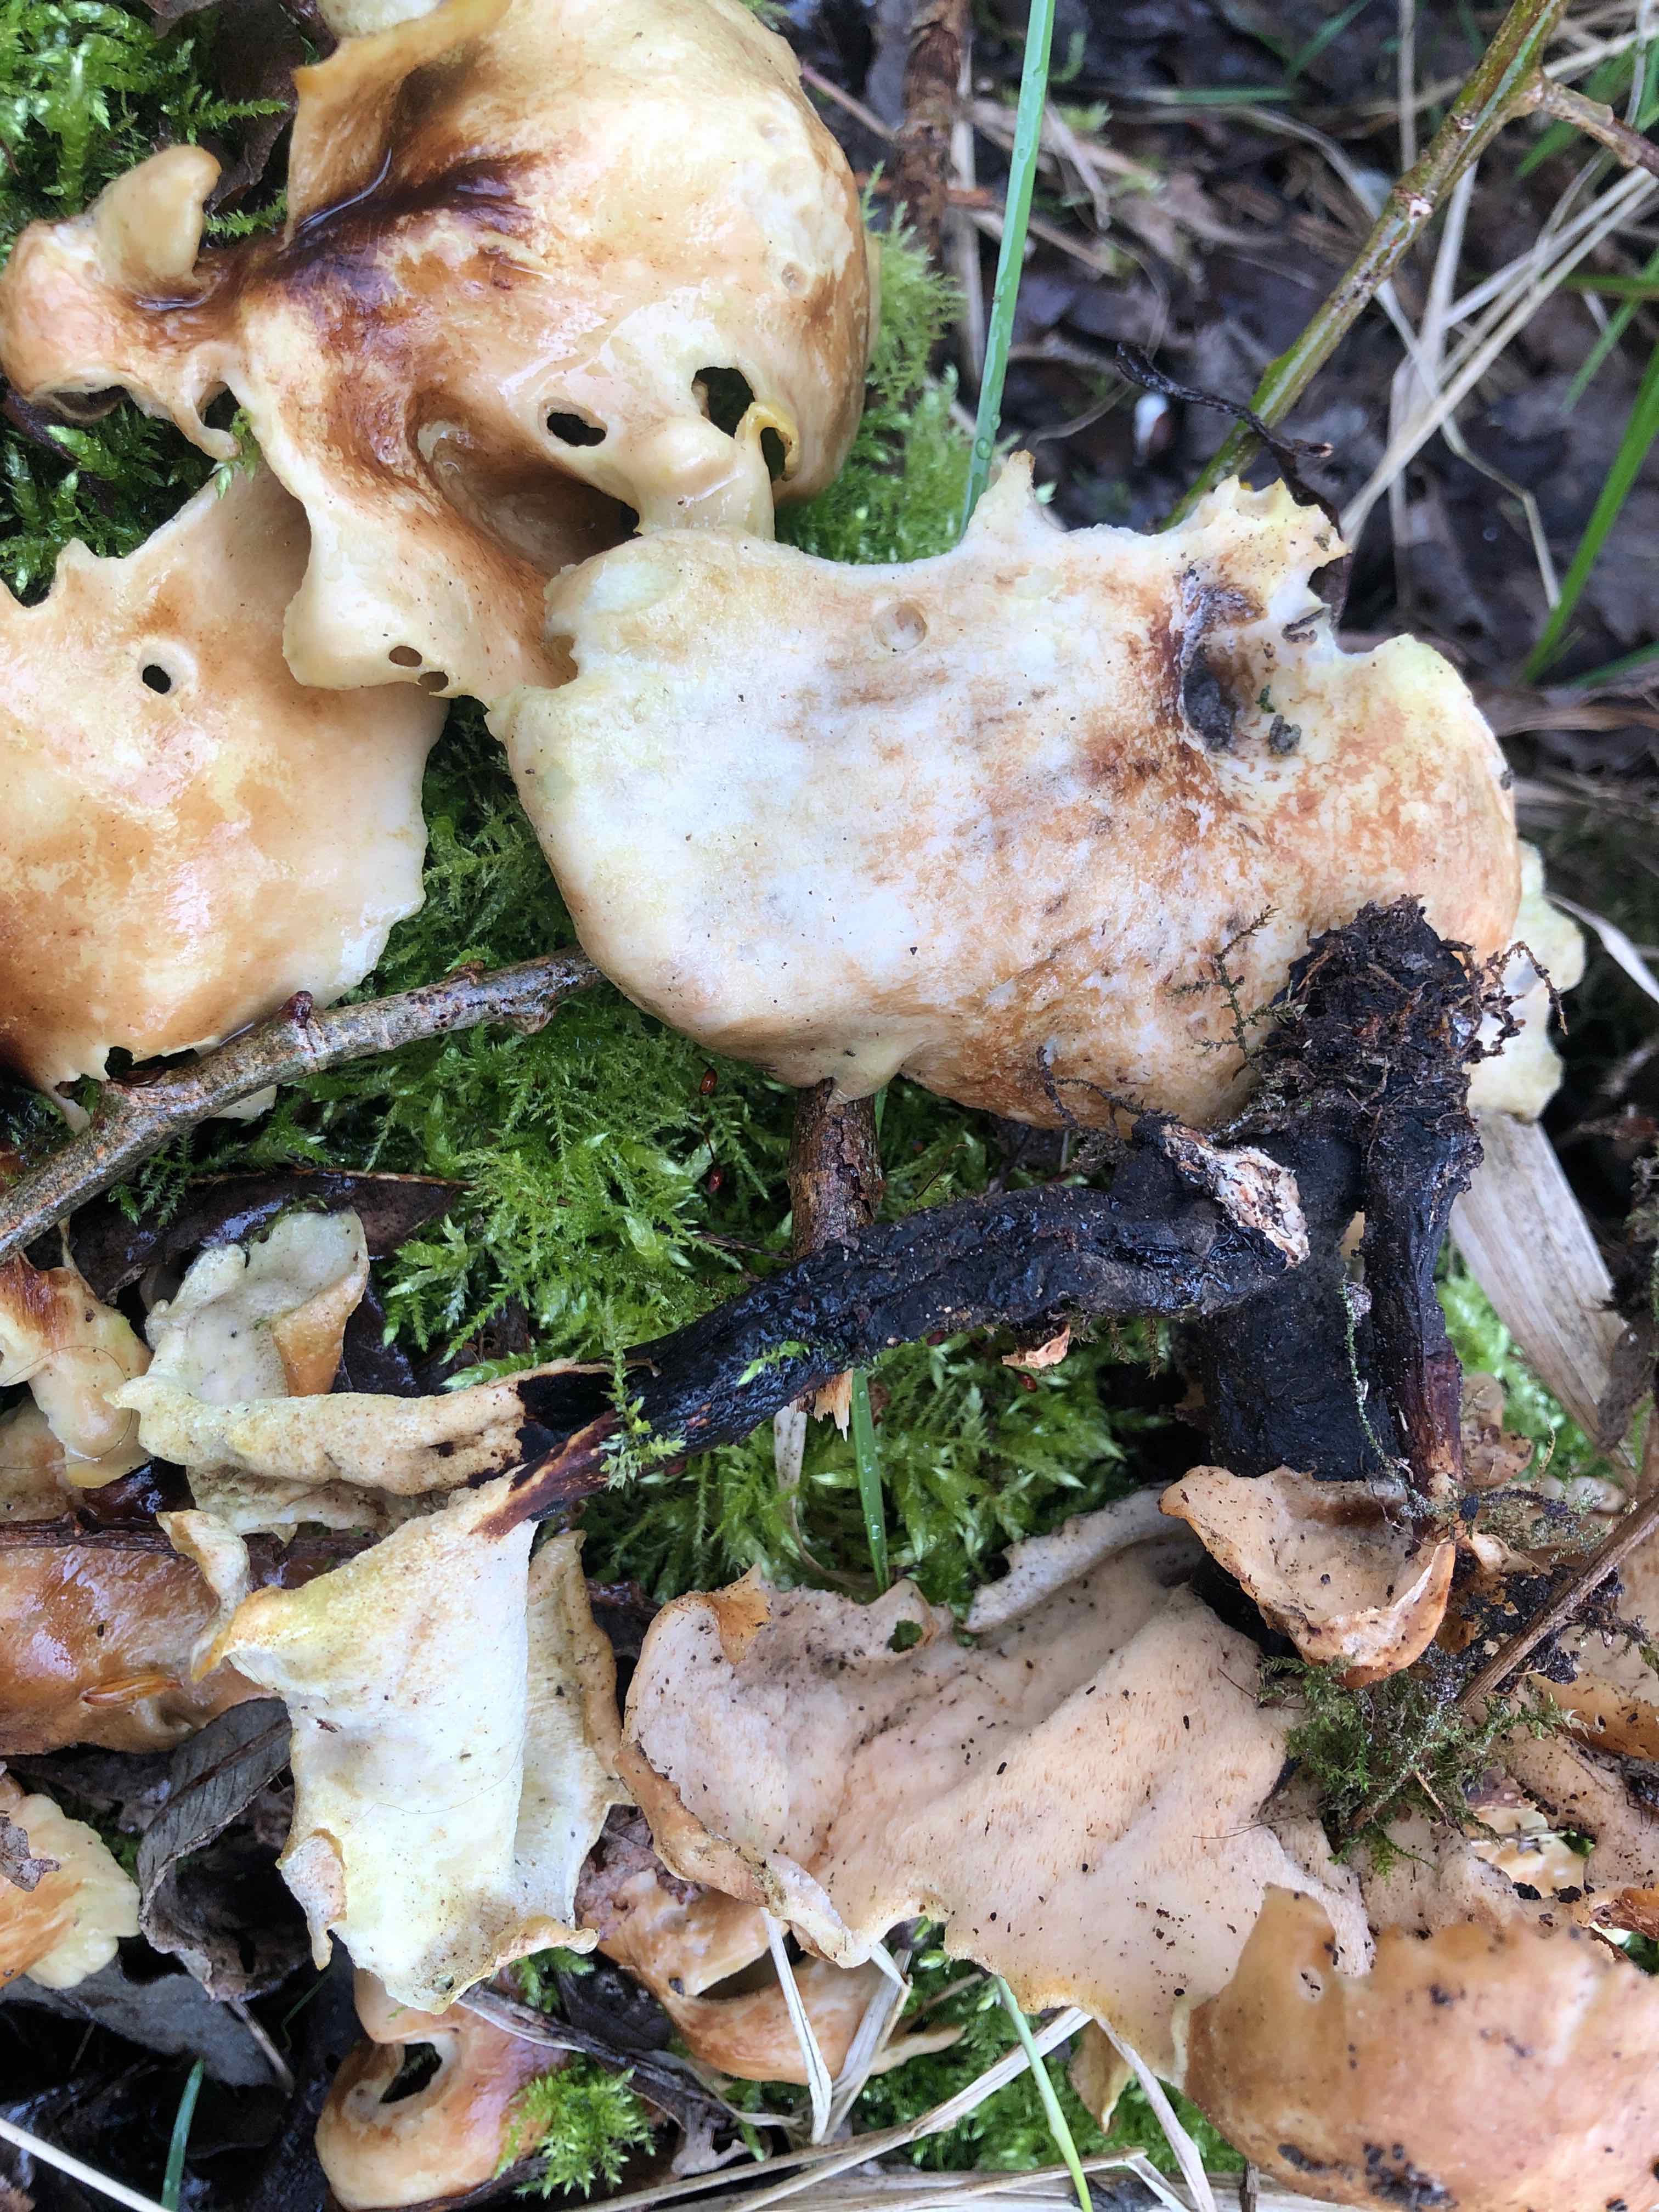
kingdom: Fungi
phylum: Basidiomycota
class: Agaricomycetes
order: Polyporales
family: Polyporaceae
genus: Picipes
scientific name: Picipes tubaeformis
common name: trompet-stilkporesvamp
